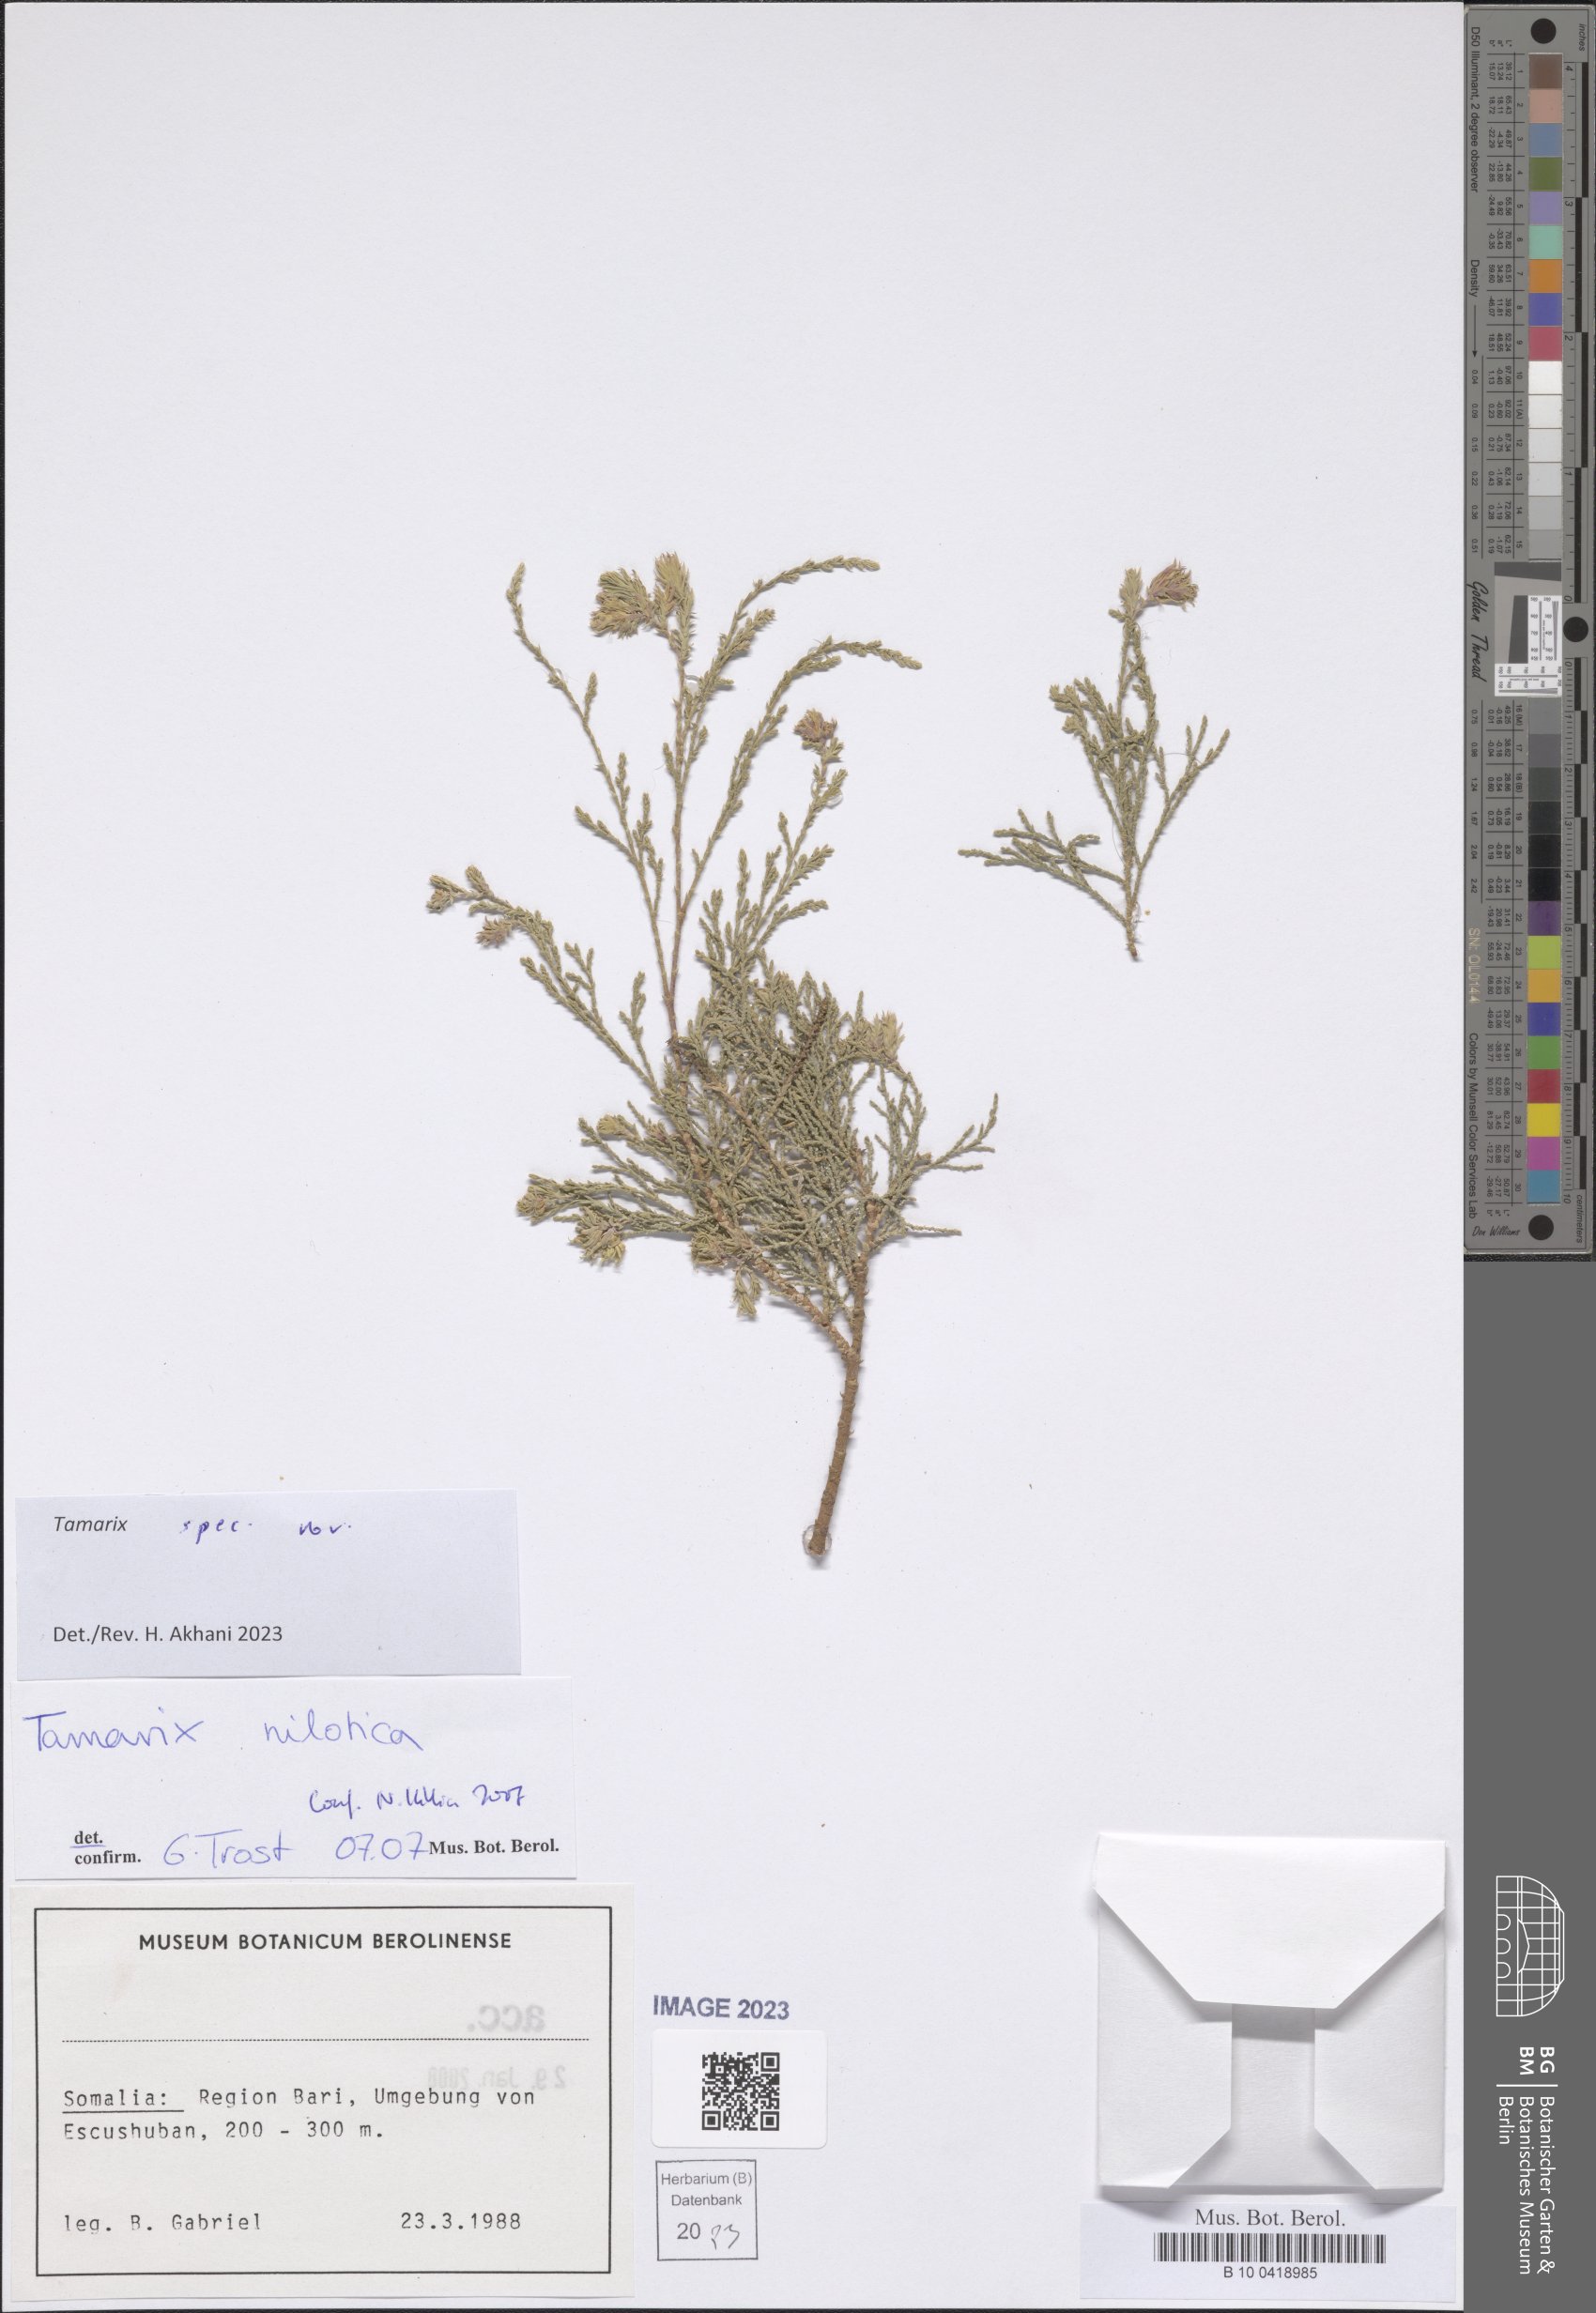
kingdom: Plantae
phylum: Tracheophyta
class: Magnoliopsida
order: Caryophyllales
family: Tamaricaceae
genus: Tamarix
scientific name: Tamarix
